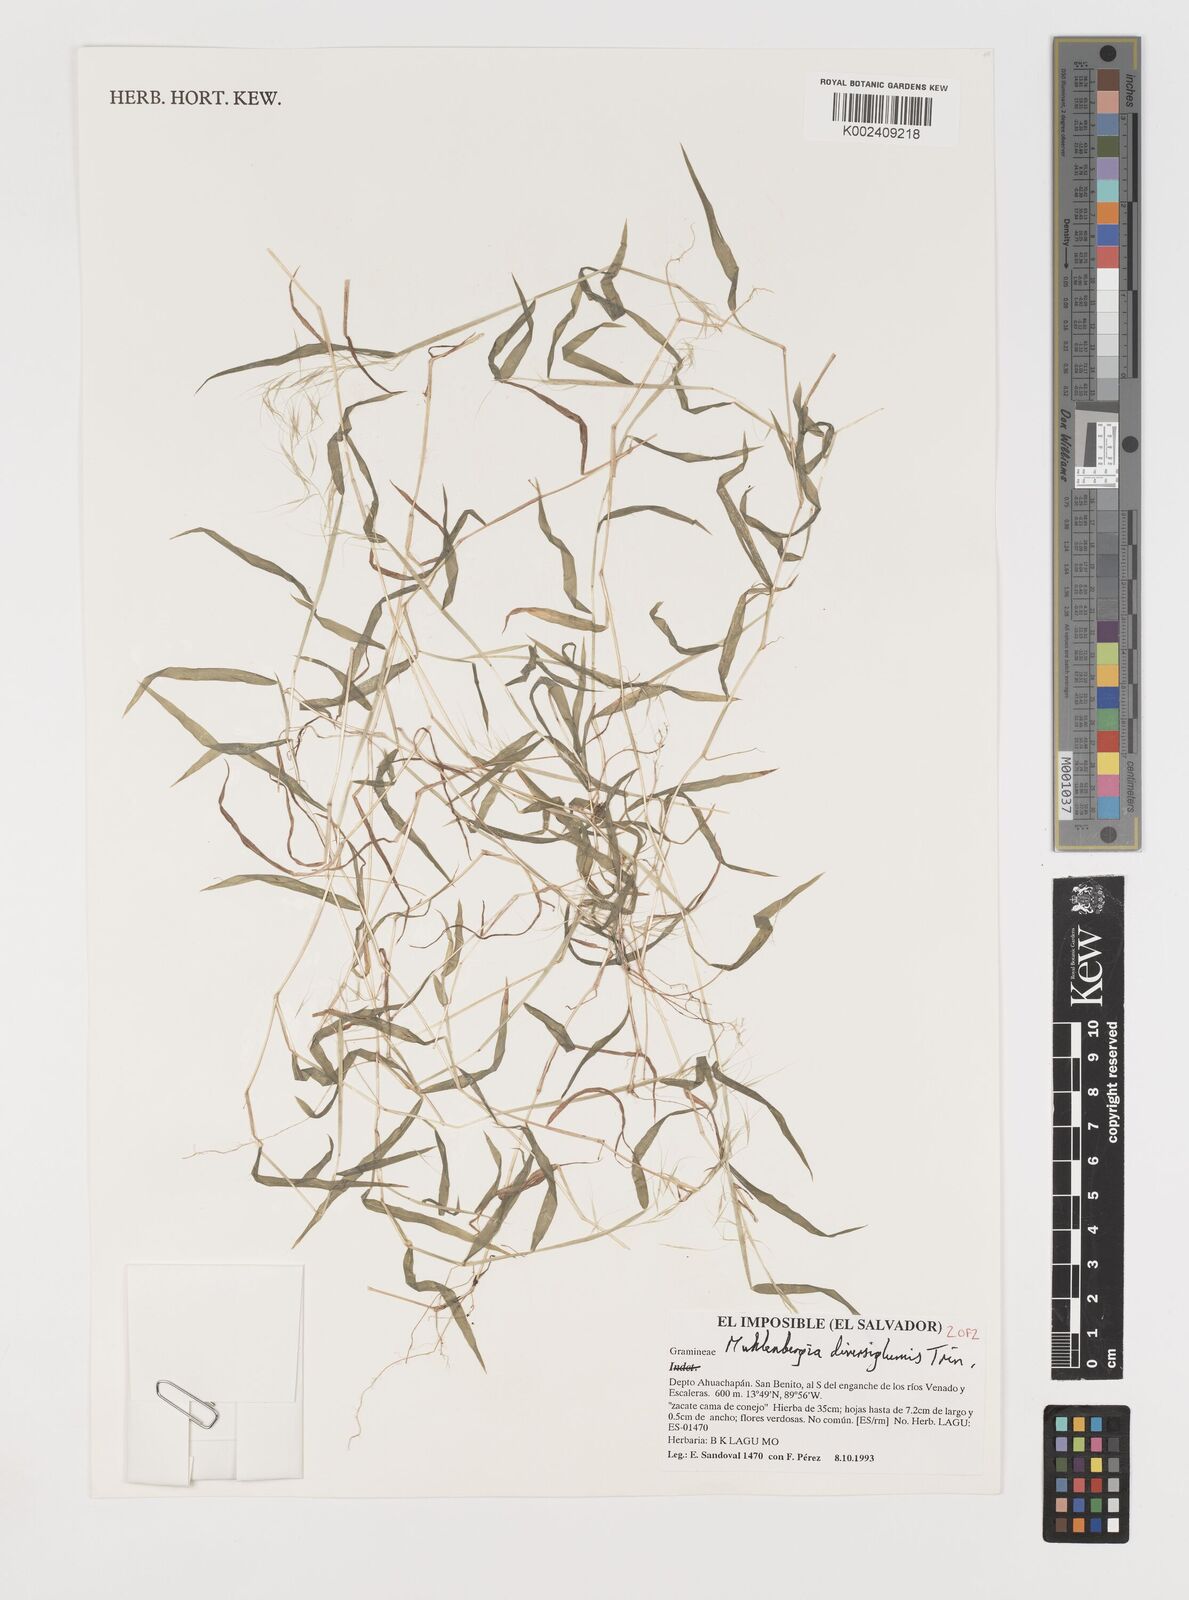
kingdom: Plantae
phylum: Tracheophyta
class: Liliopsida
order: Poales
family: Poaceae
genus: Muhlenbergia
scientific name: Muhlenbergia diversiglumis
